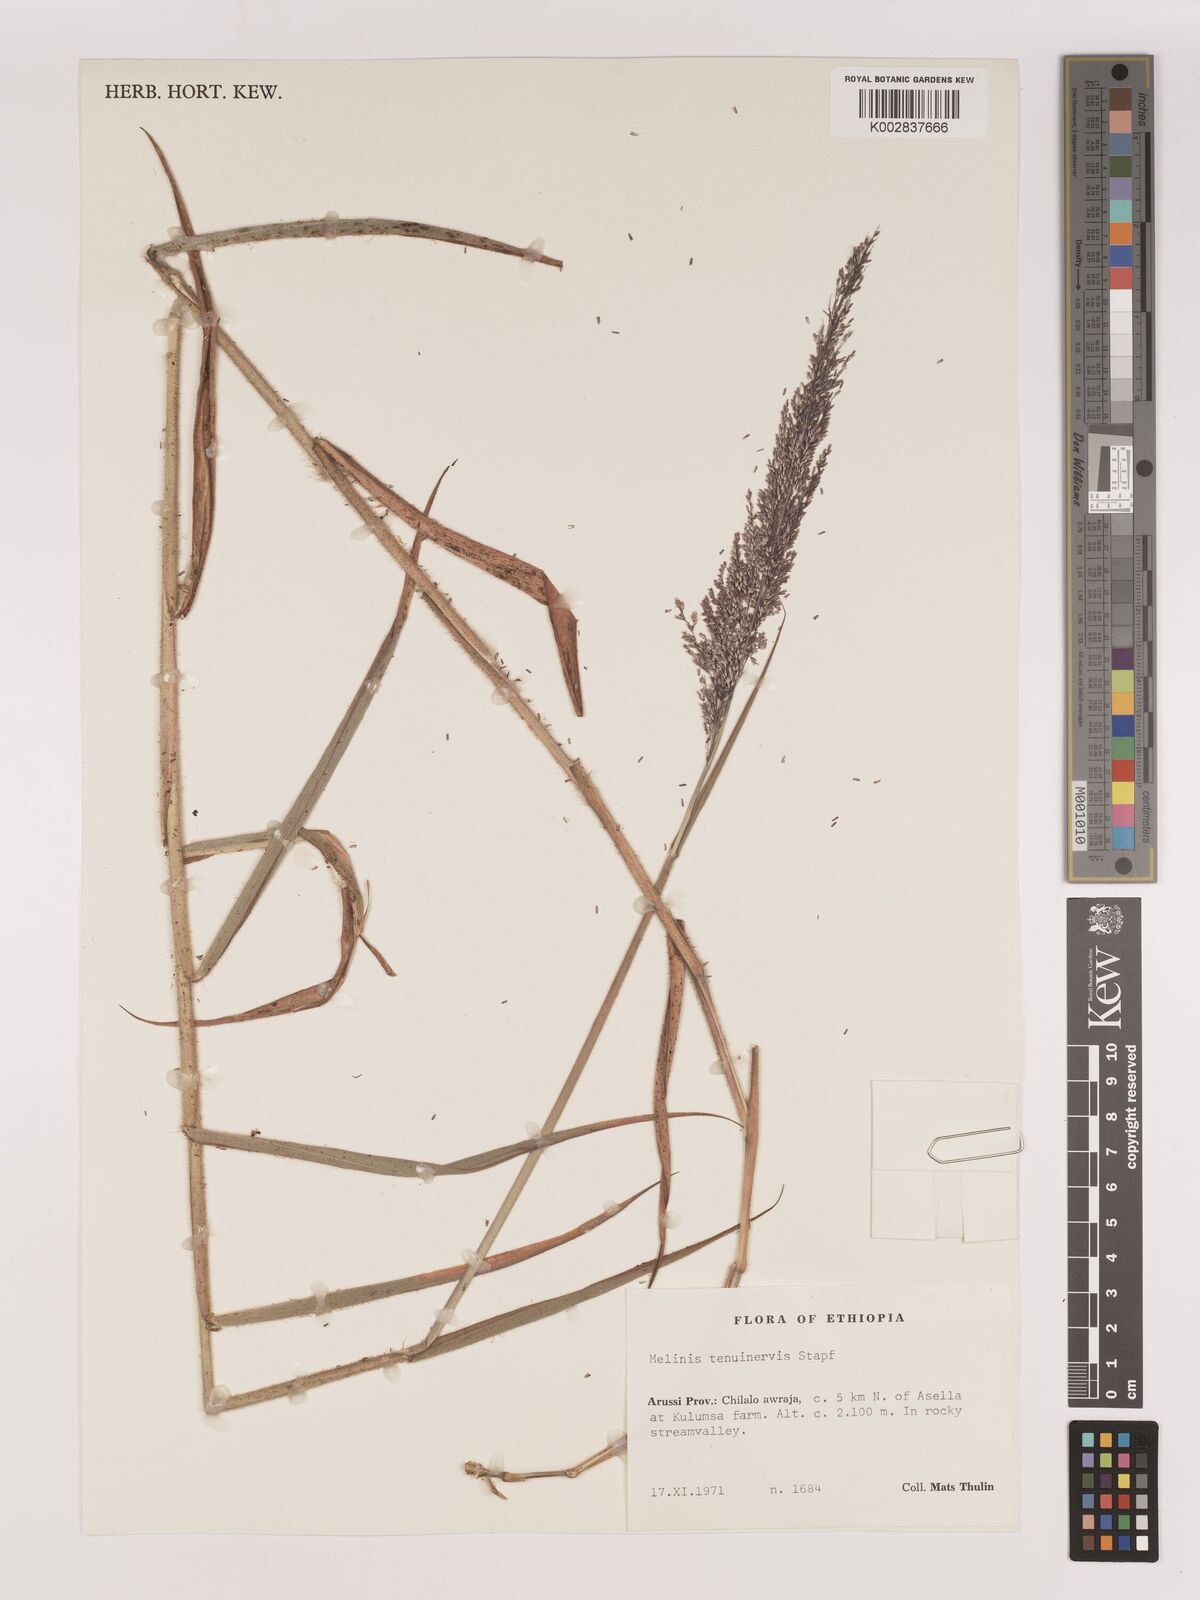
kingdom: Plantae
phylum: Tracheophyta
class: Liliopsida
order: Poales
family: Poaceae
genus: Melinis
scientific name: Melinis minutiflora
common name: Molassesgrass
